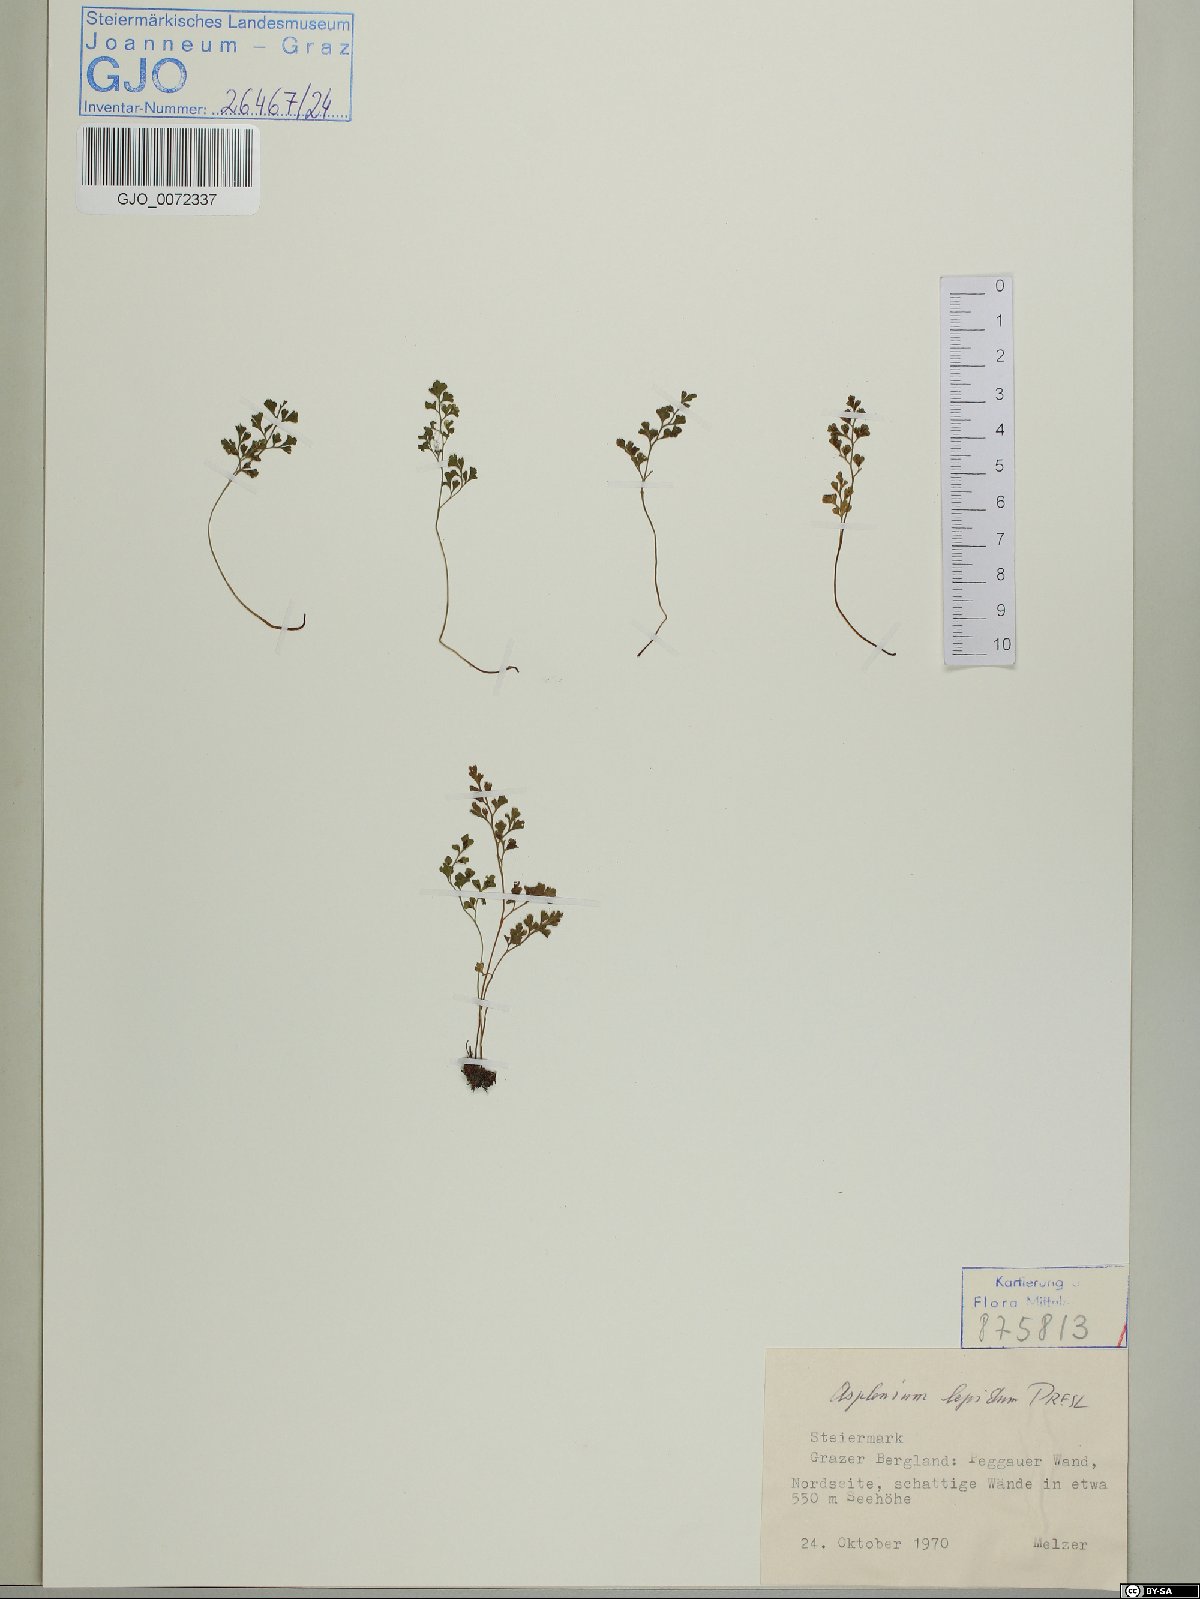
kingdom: Plantae
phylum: Tracheophyta
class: Polypodiopsida
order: Polypodiales
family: Aspleniaceae
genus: Asplenium
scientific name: Asplenium lepidum
